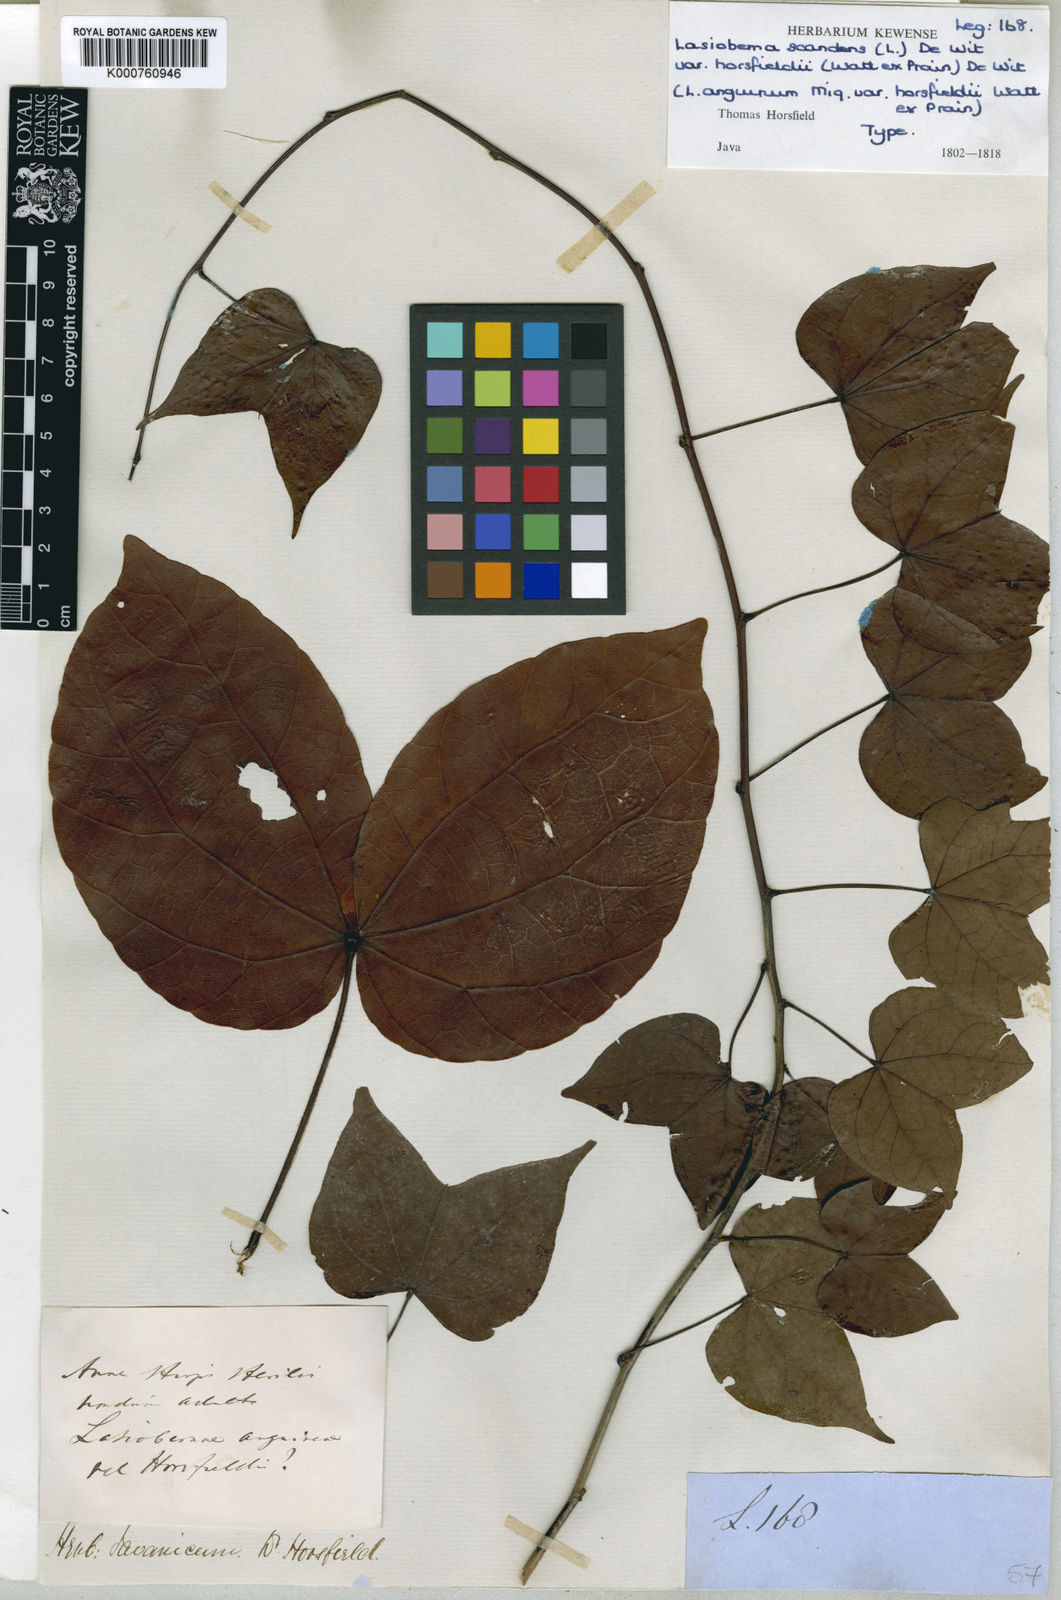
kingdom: Plantae
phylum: Tracheophyta
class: Magnoliopsida
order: Fabales
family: Fabaceae
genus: Phanera
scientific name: Phanera scandens
